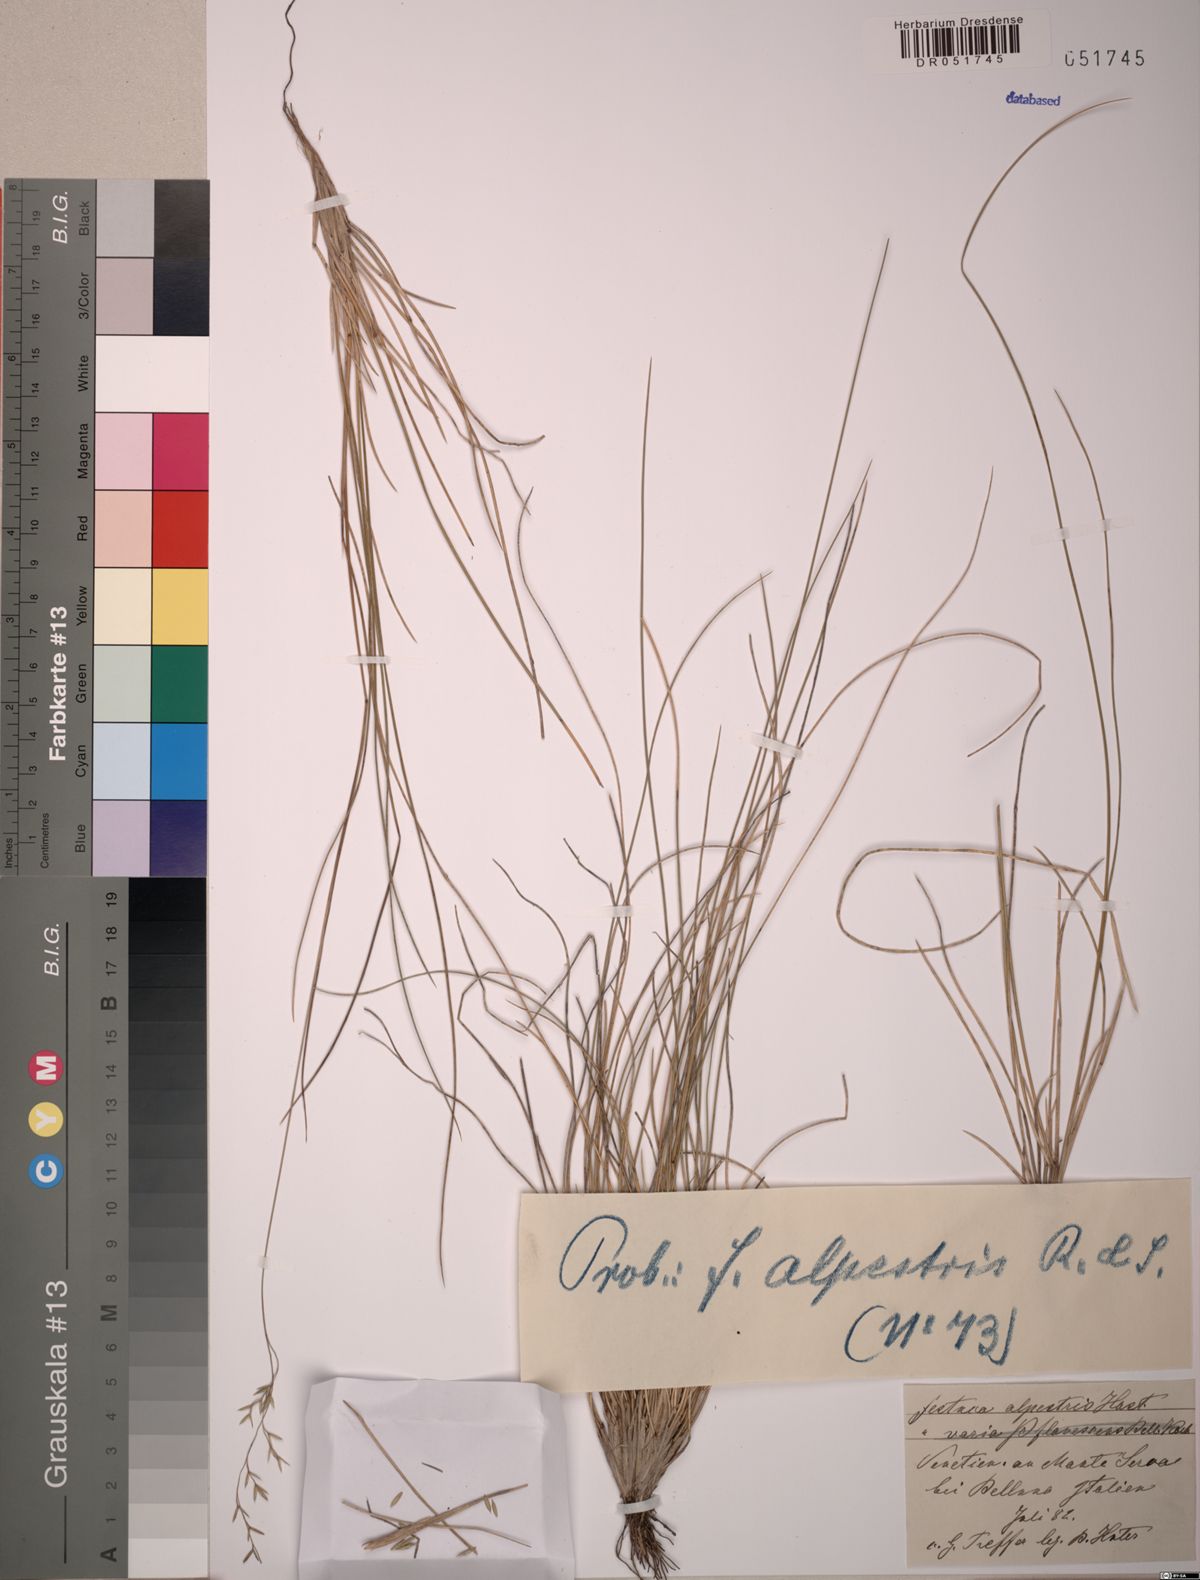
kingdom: Plantae
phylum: Tracheophyta
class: Liliopsida
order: Poales
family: Poaceae
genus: Festuca
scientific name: Festuca alpestris
